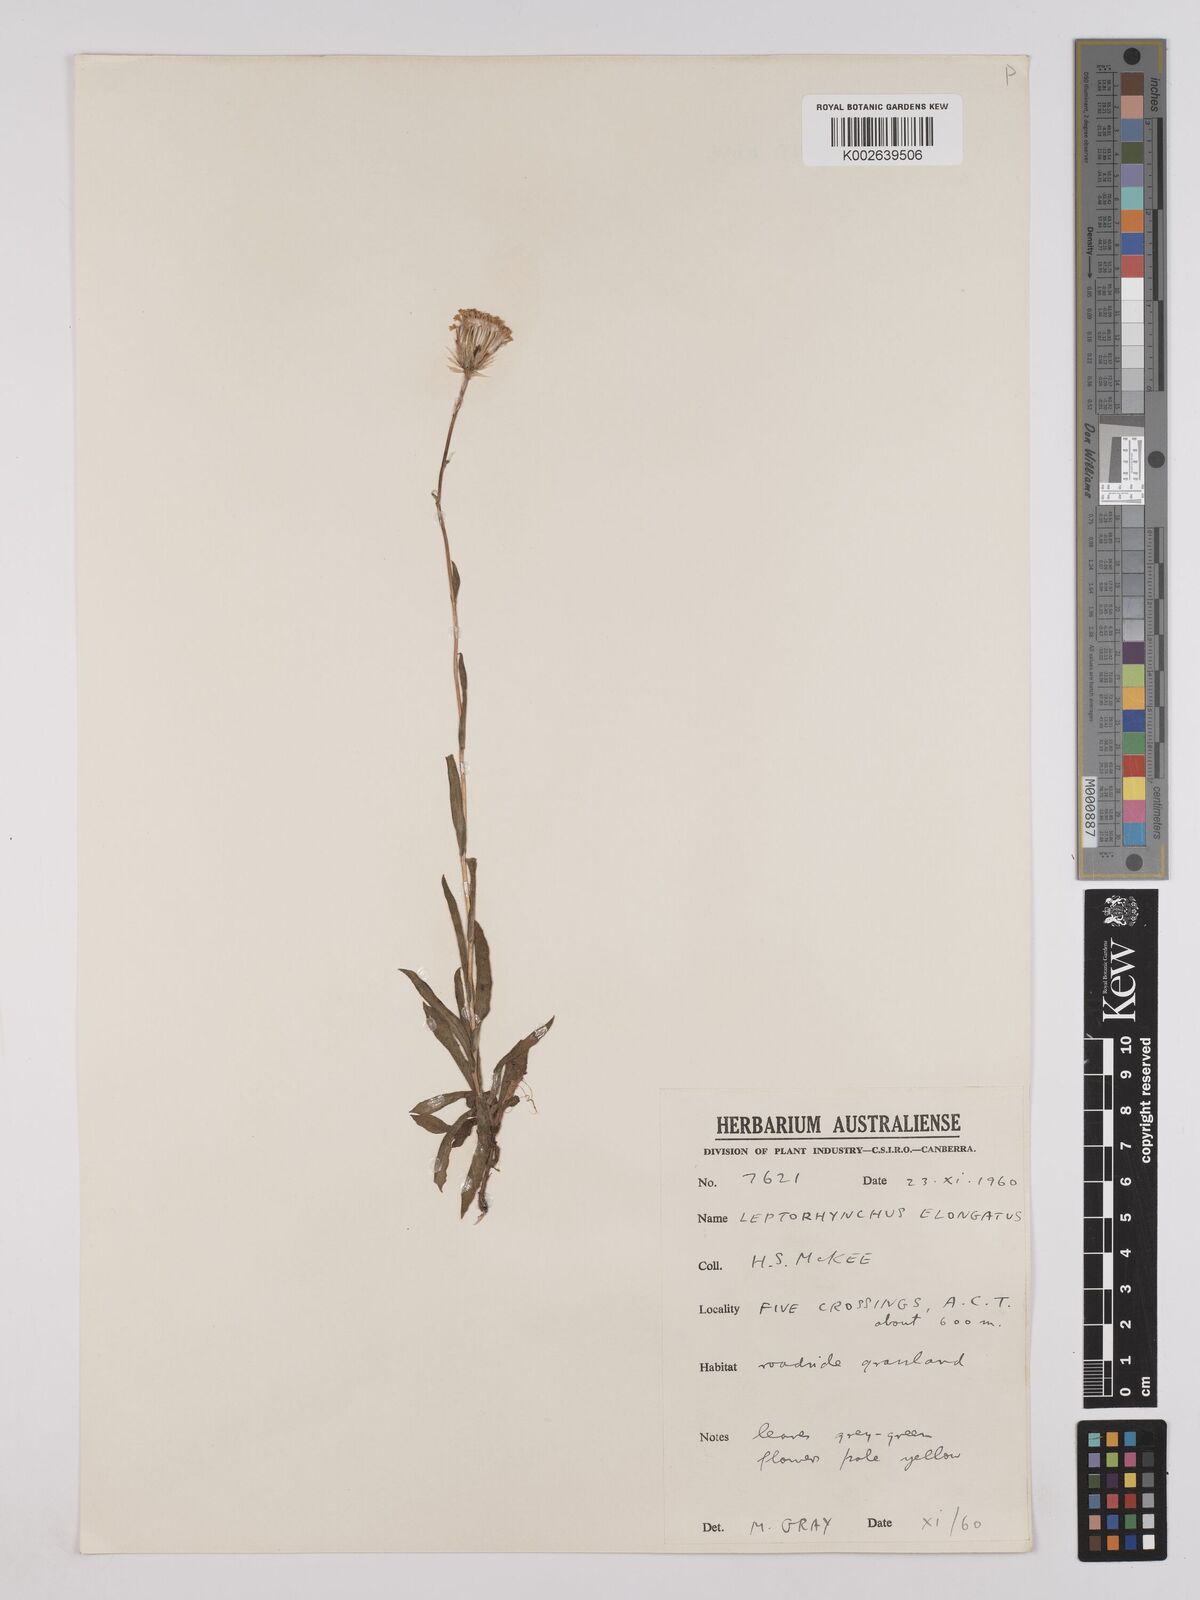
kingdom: Plantae
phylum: Tracheophyta
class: Magnoliopsida
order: Asterales
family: Asteraceae
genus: Leptorhynchos
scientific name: Leptorhynchos elongatus
